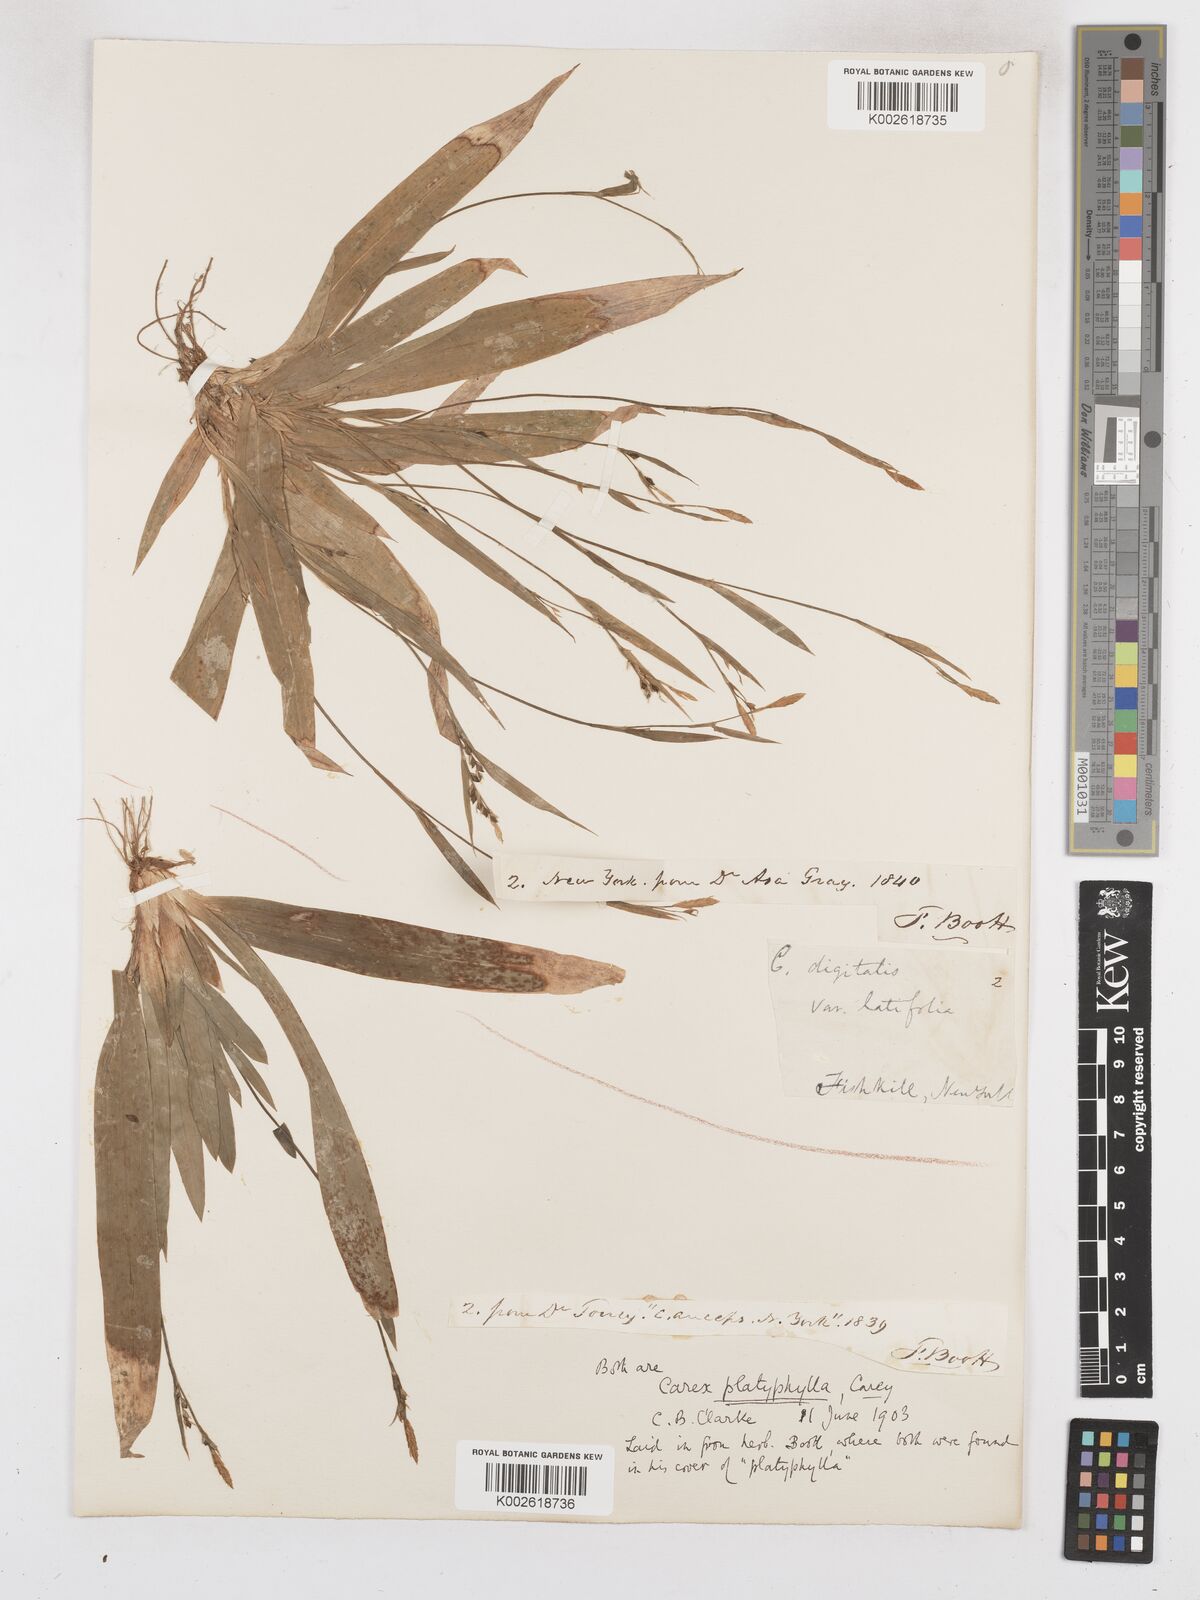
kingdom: Plantae
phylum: Tracheophyta
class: Liliopsida
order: Poales
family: Cyperaceae
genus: Carex
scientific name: Carex platyphylla
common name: Broad-leaved sedge
